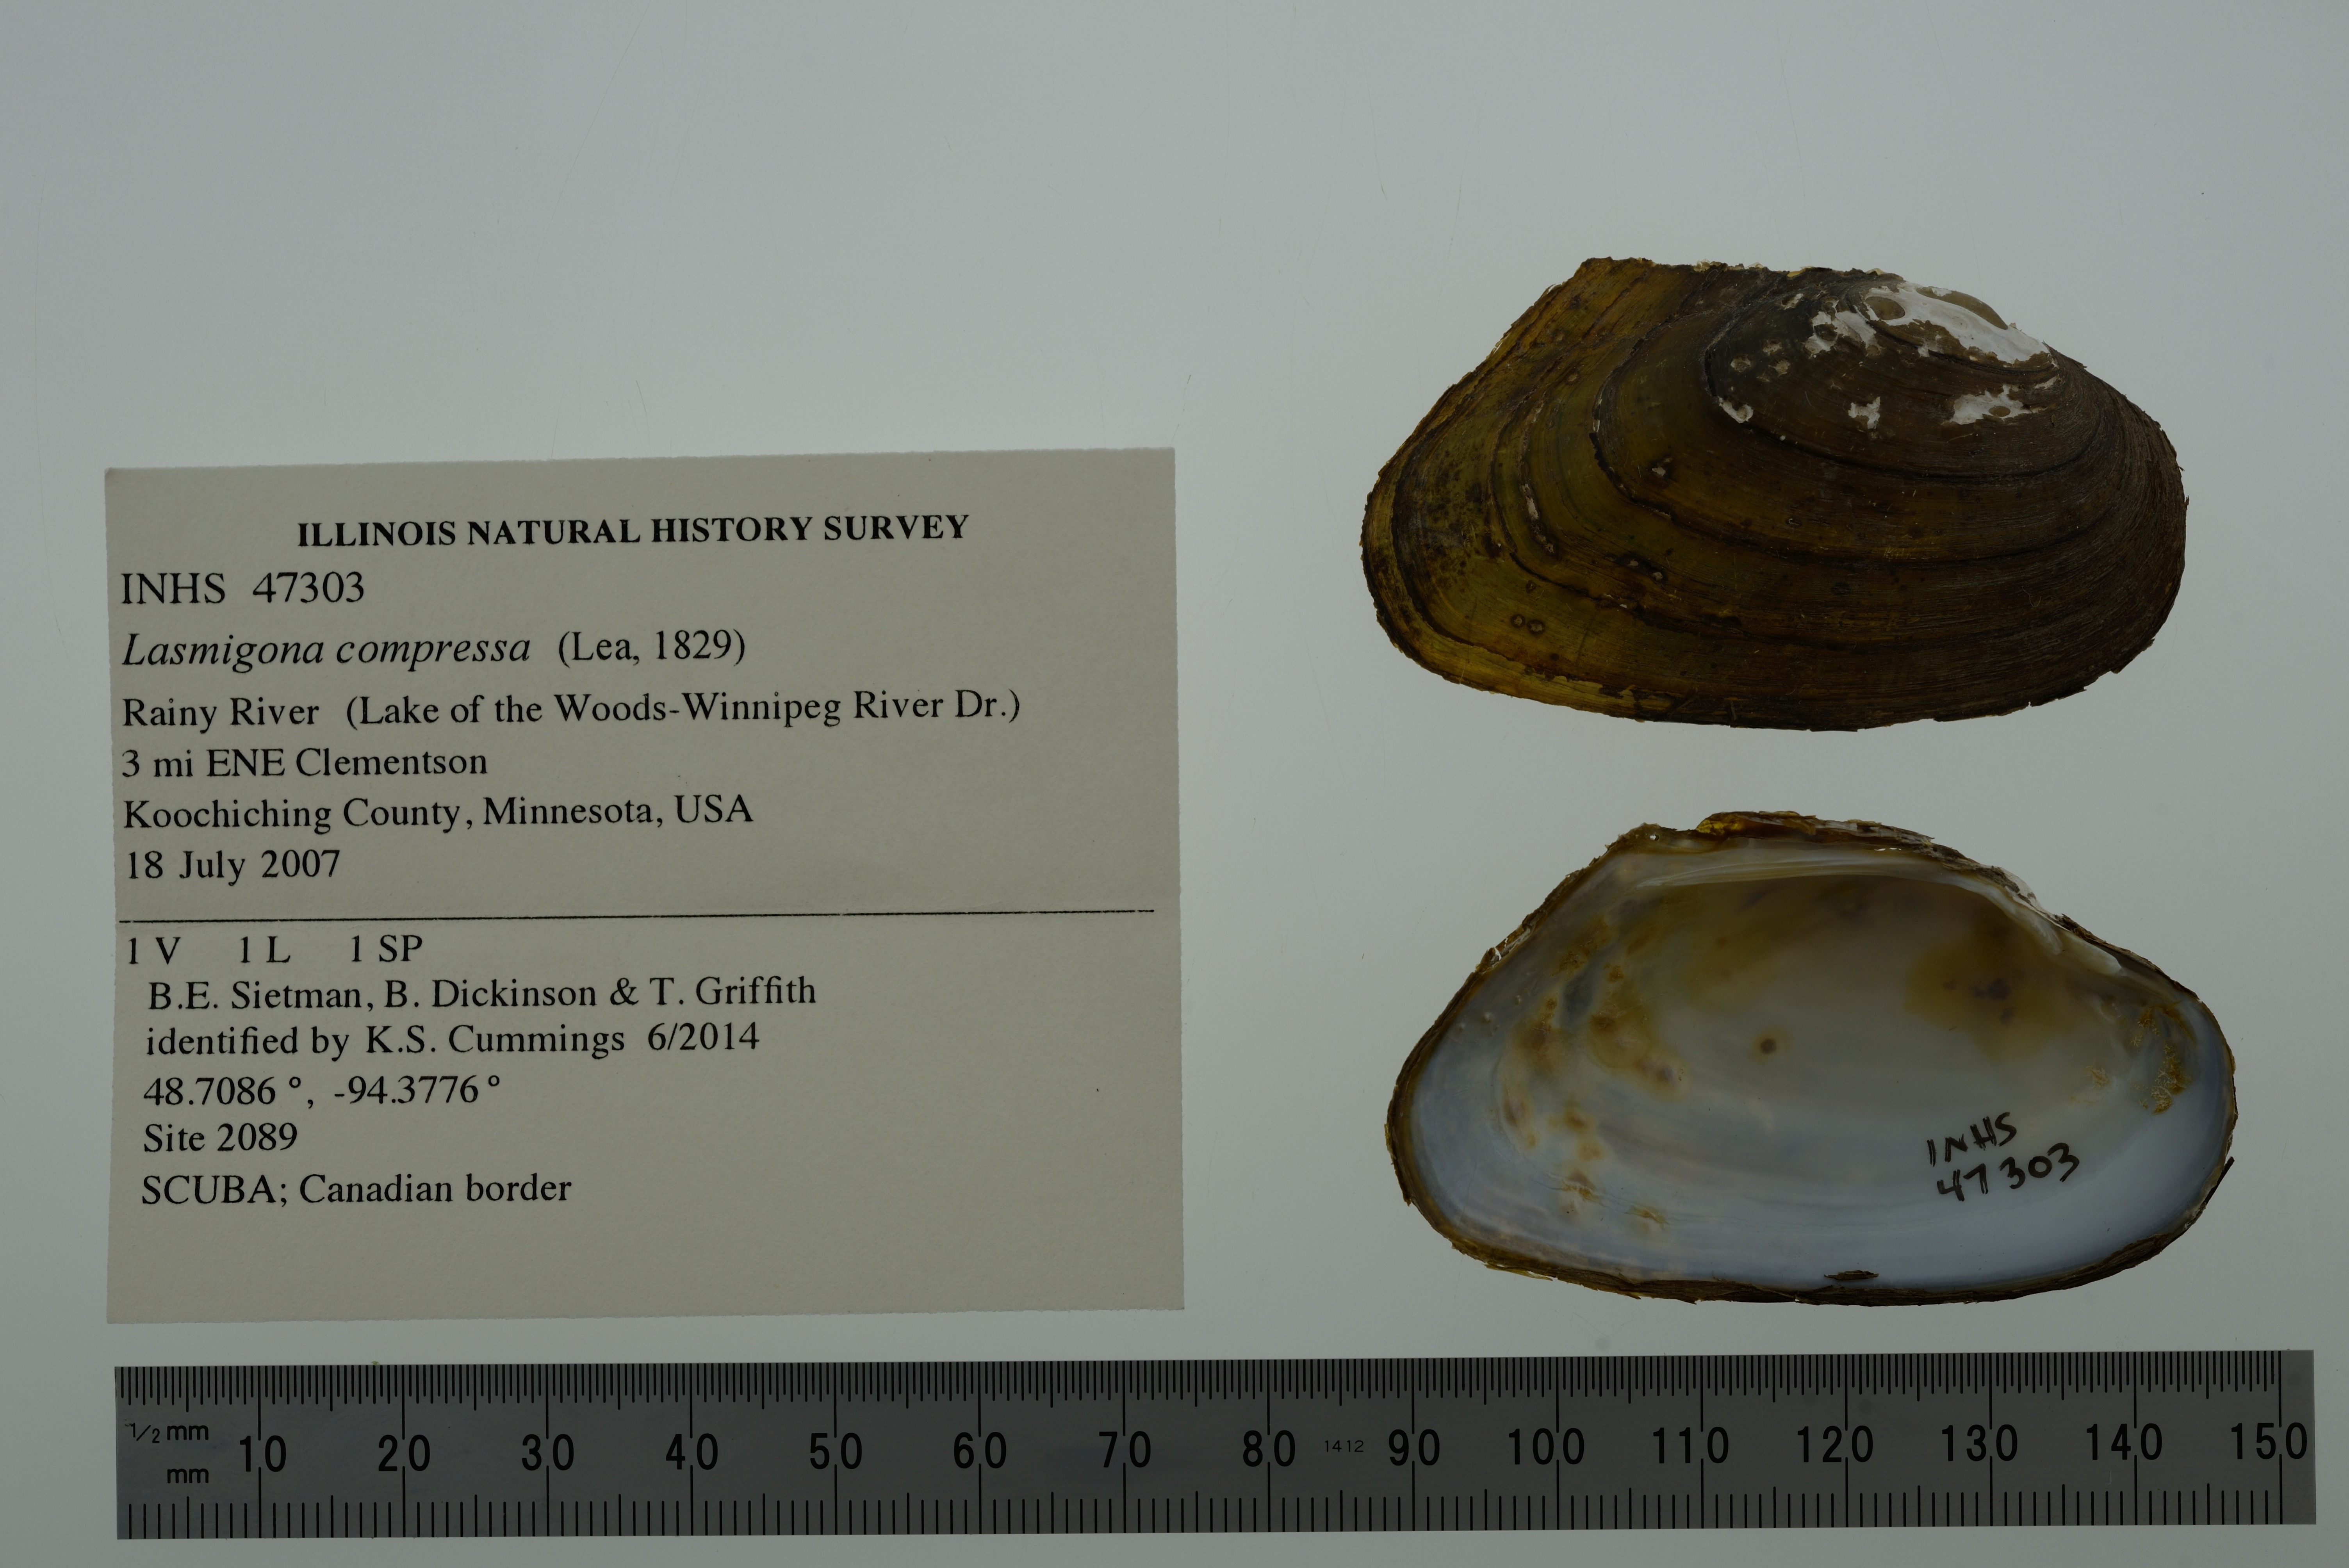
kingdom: Animalia
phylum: Mollusca
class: Bivalvia
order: Unionida
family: Unionidae
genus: Lasmigona
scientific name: Lasmigona compressa
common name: Creek heelsplitter
